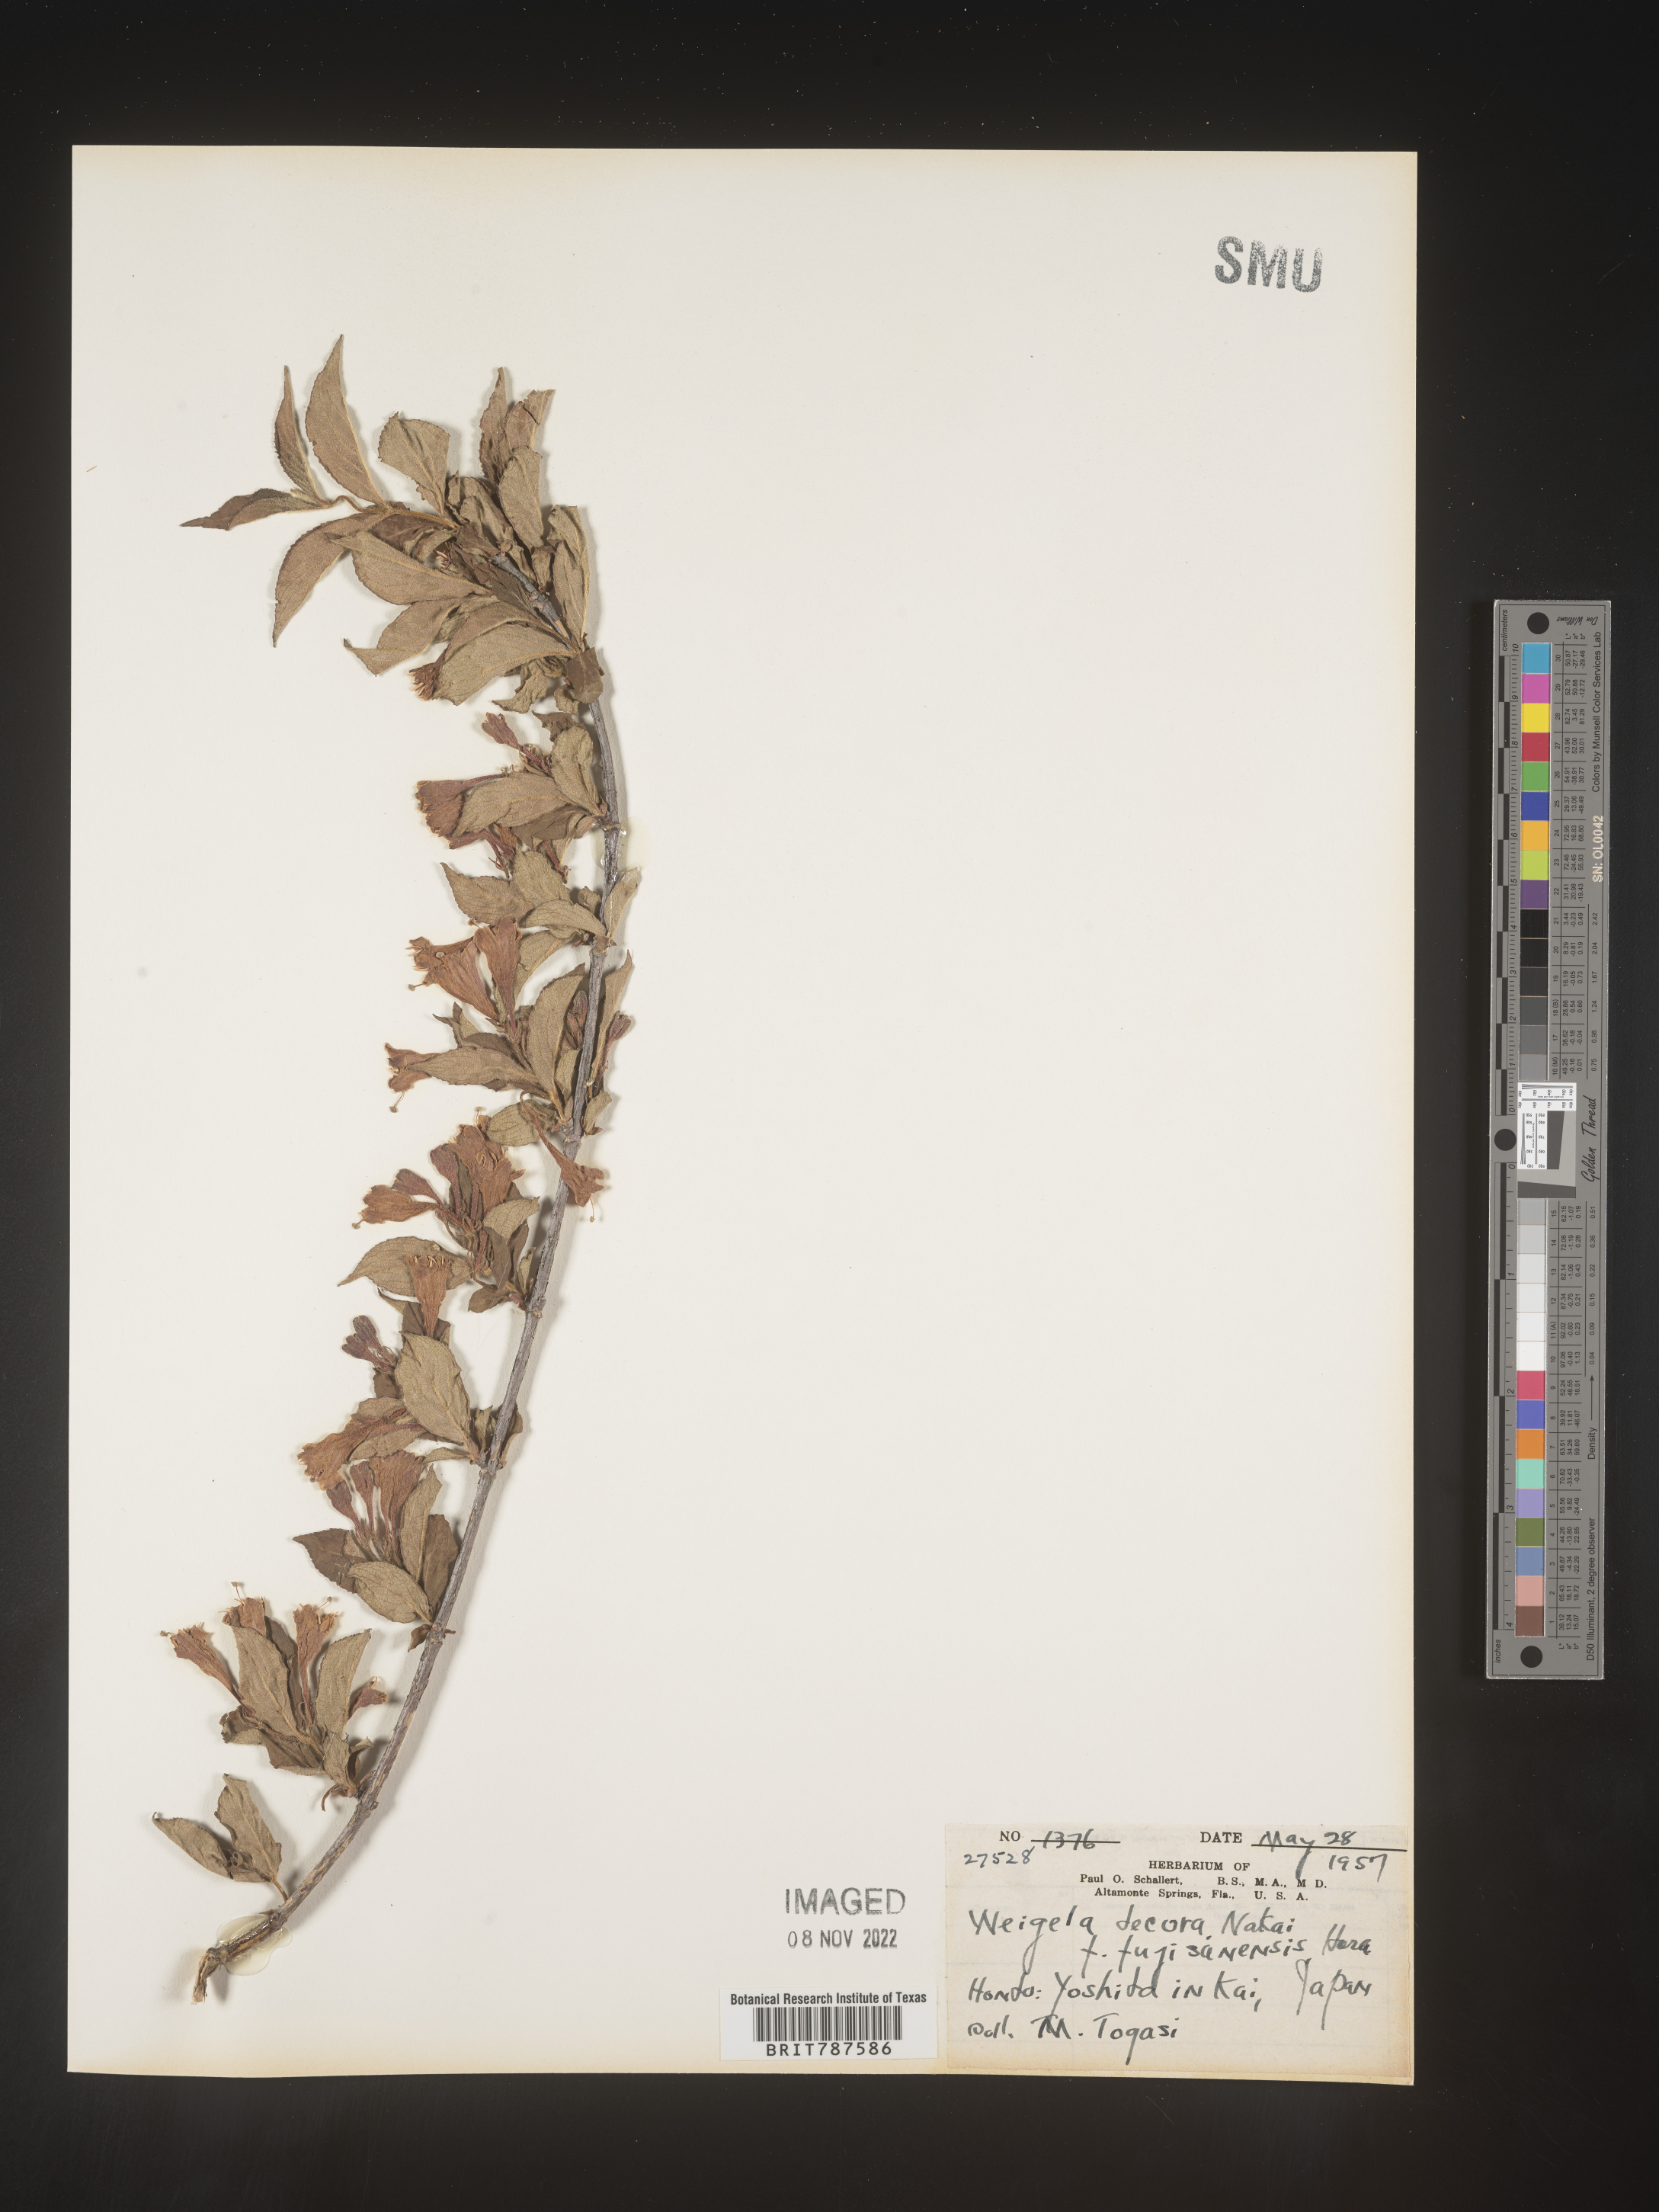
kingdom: Plantae
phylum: Tracheophyta
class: Magnoliopsida
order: Dipsacales
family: Caprifoliaceae
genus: Weigela
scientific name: Weigela
